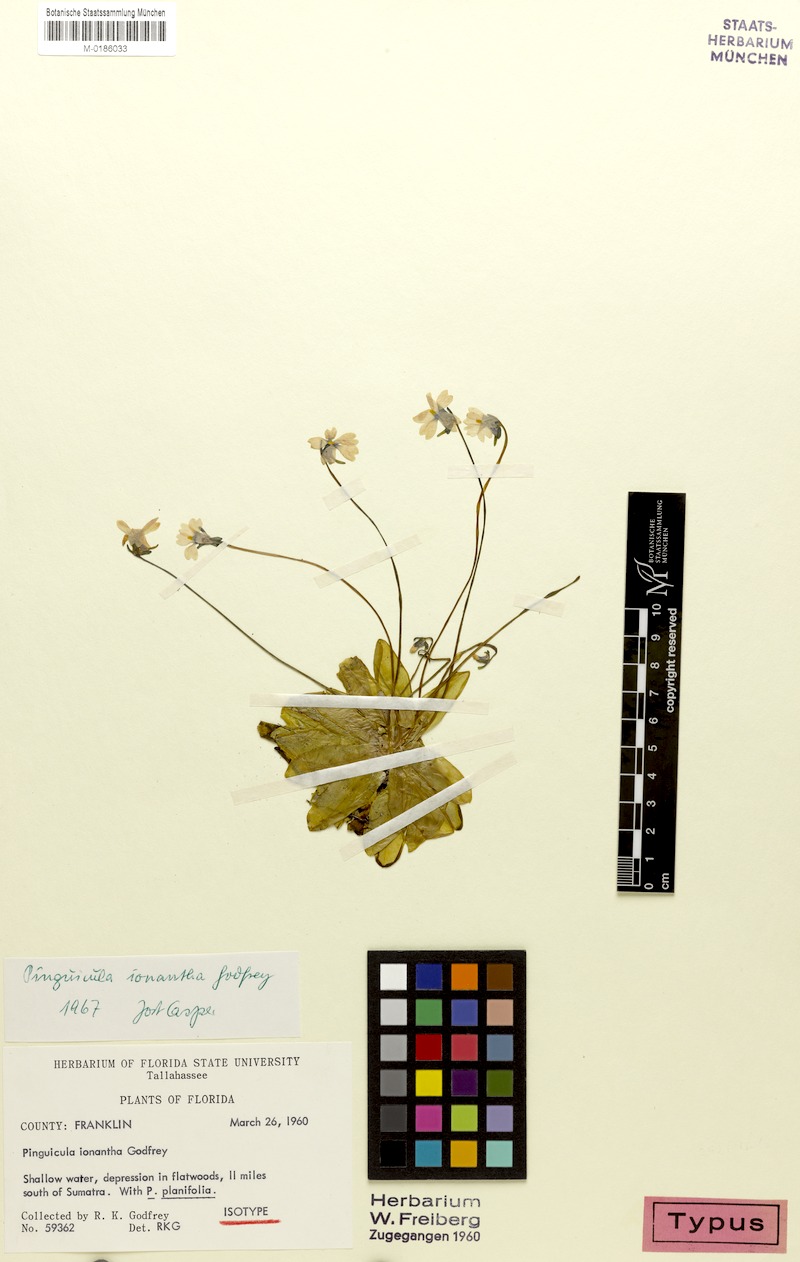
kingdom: Plantae
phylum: Tracheophyta
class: Magnoliopsida
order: Lamiales
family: Lentibulariaceae
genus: Pinguicula
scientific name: Pinguicula ionantha
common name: Godfrey's butterwort
